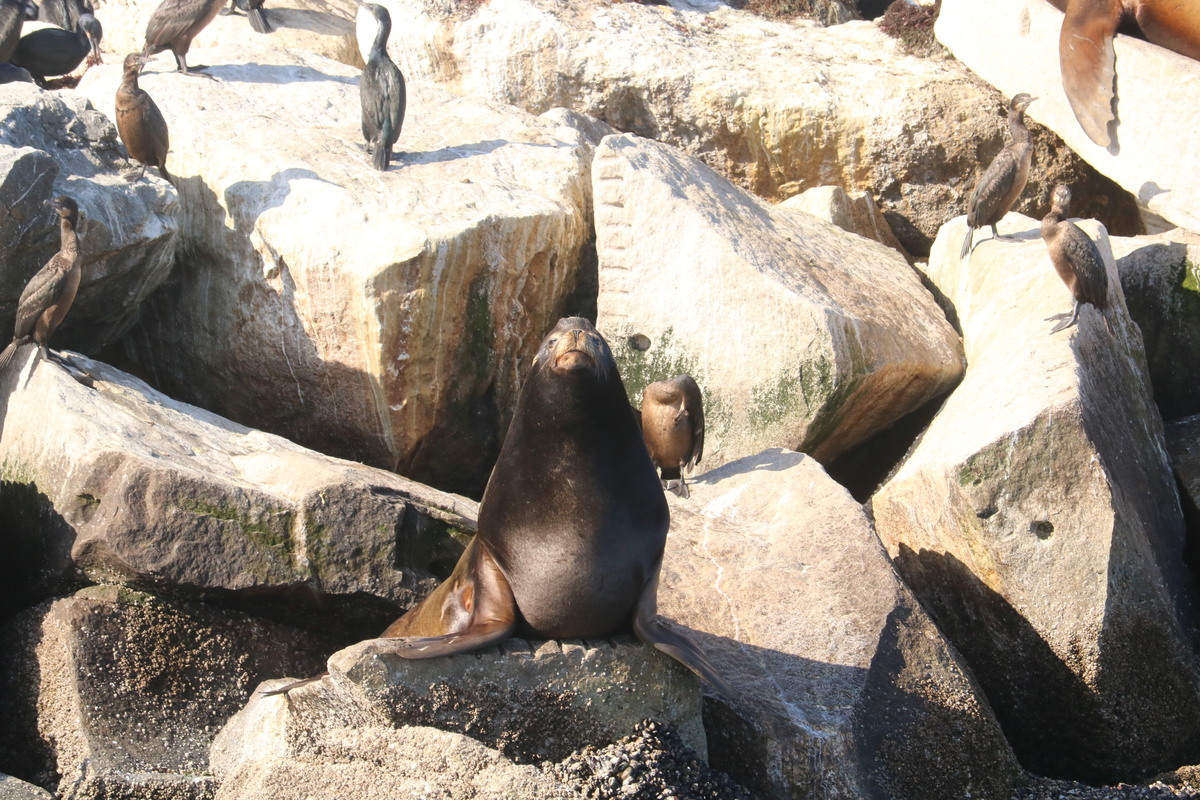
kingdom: Animalia
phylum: Chordata
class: Mammalia
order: Carnivora
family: Otariidae
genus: Zalophus
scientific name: Zalophus californianus
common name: California sea lion
